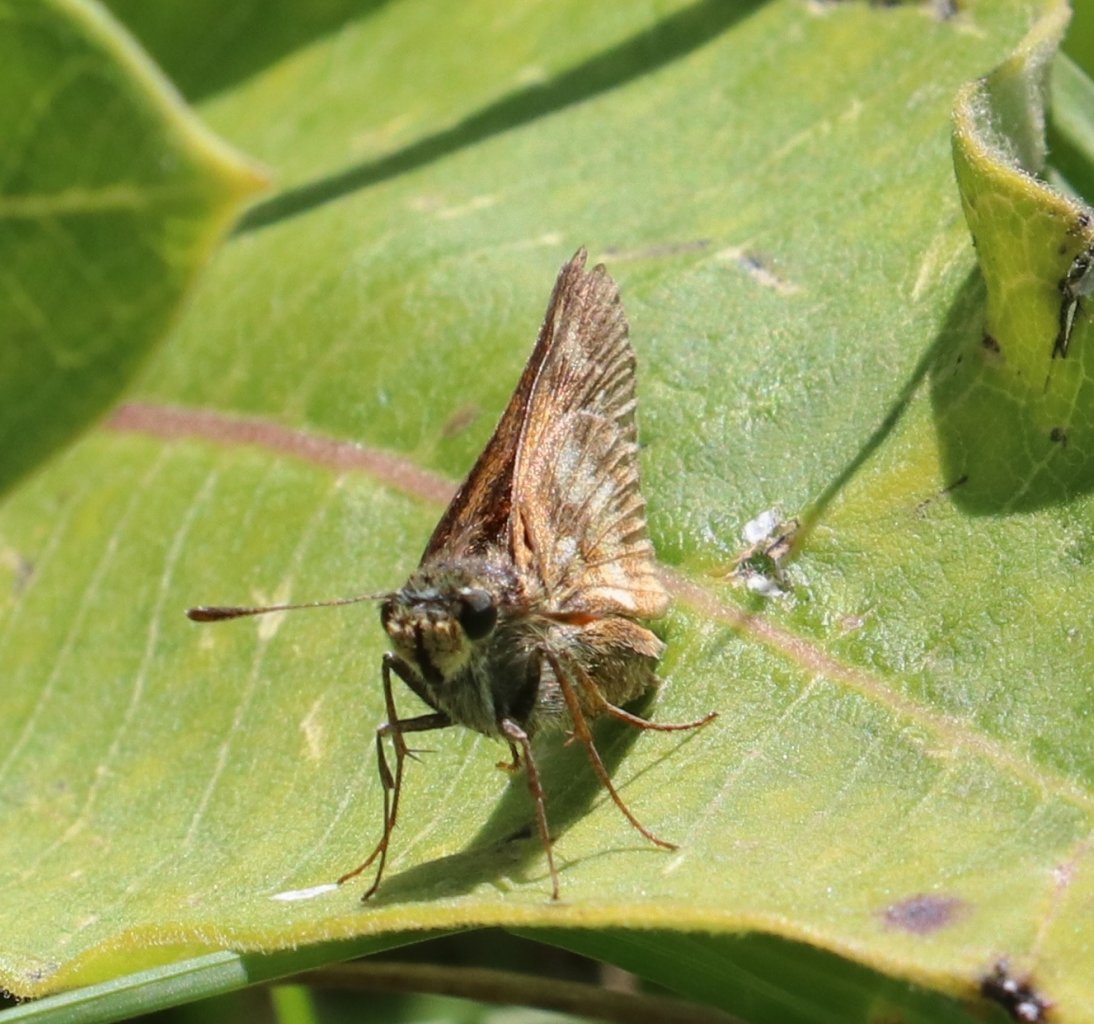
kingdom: Animalia
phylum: Arthropoda
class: Insecta
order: Lepidoptera
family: Hesperiidae
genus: Polites
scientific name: Polites
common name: Long Dash Skipper
